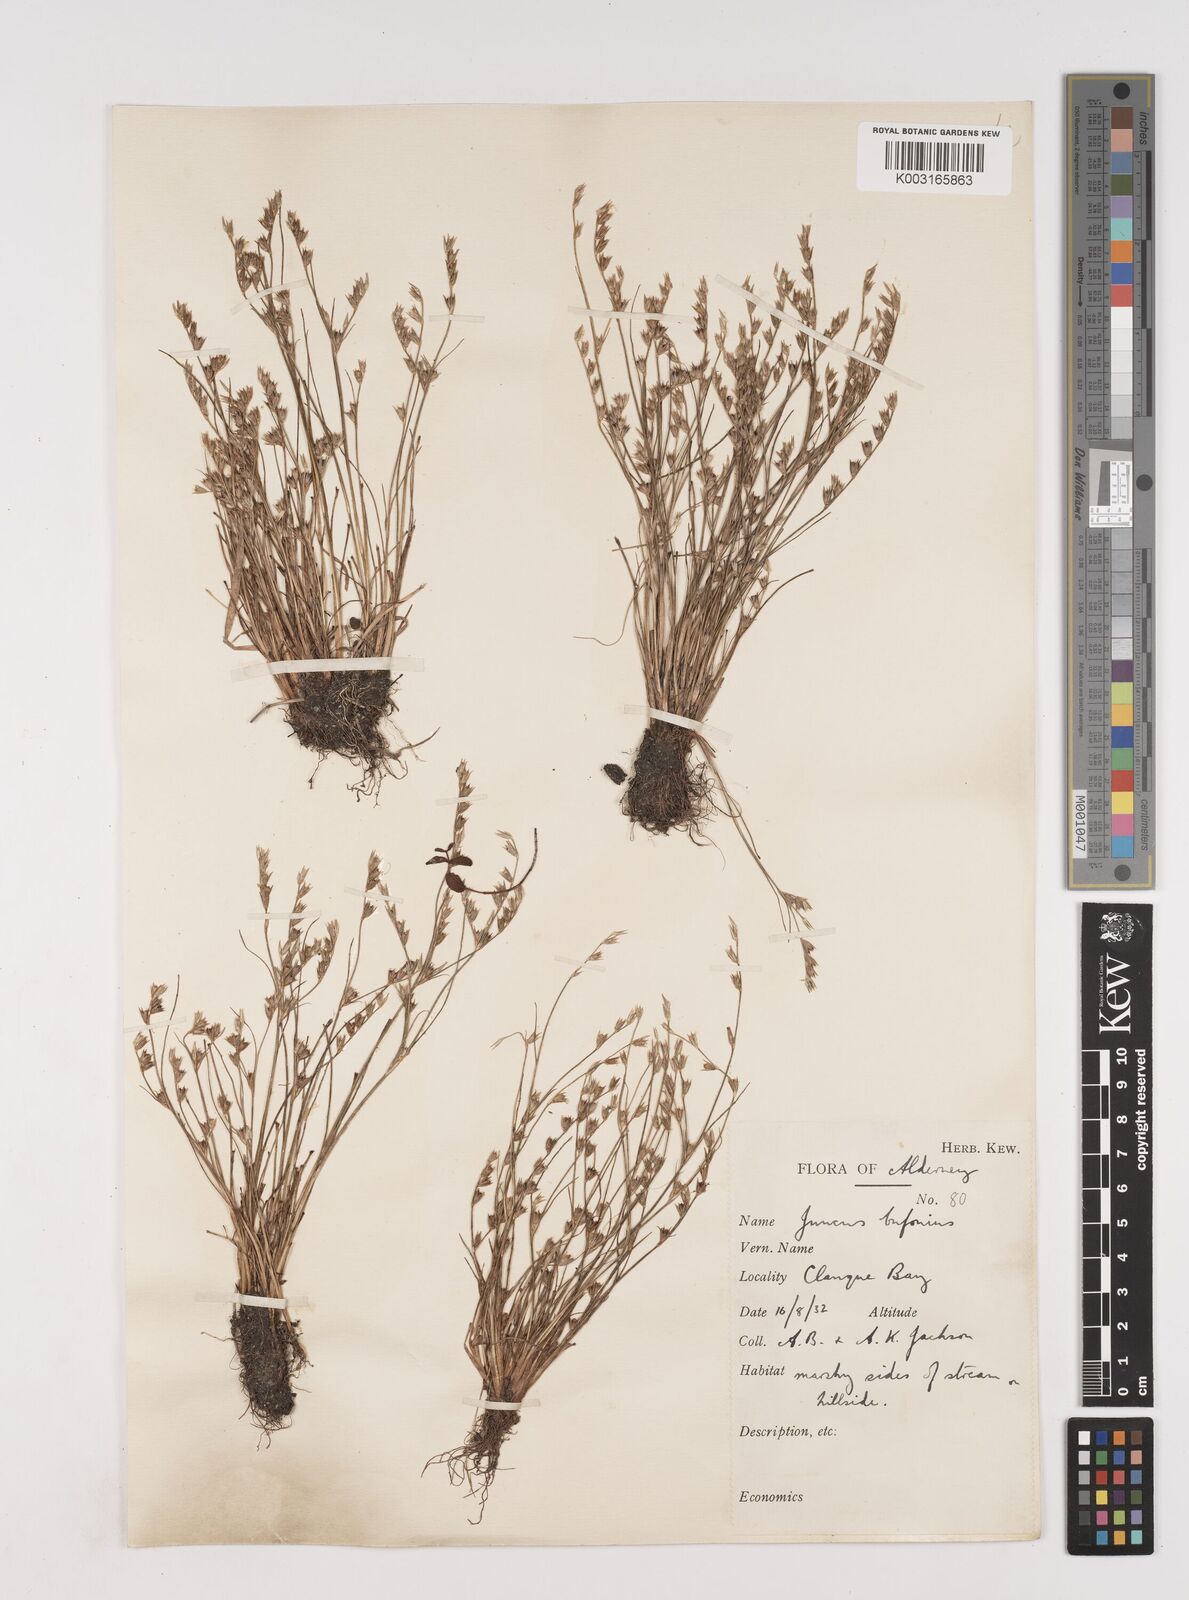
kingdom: Plantae
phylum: Tracheophyta
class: Liliopsida
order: Poales
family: Juncaceae
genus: Juncus
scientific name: Juncus bufonius
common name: Toad rush
